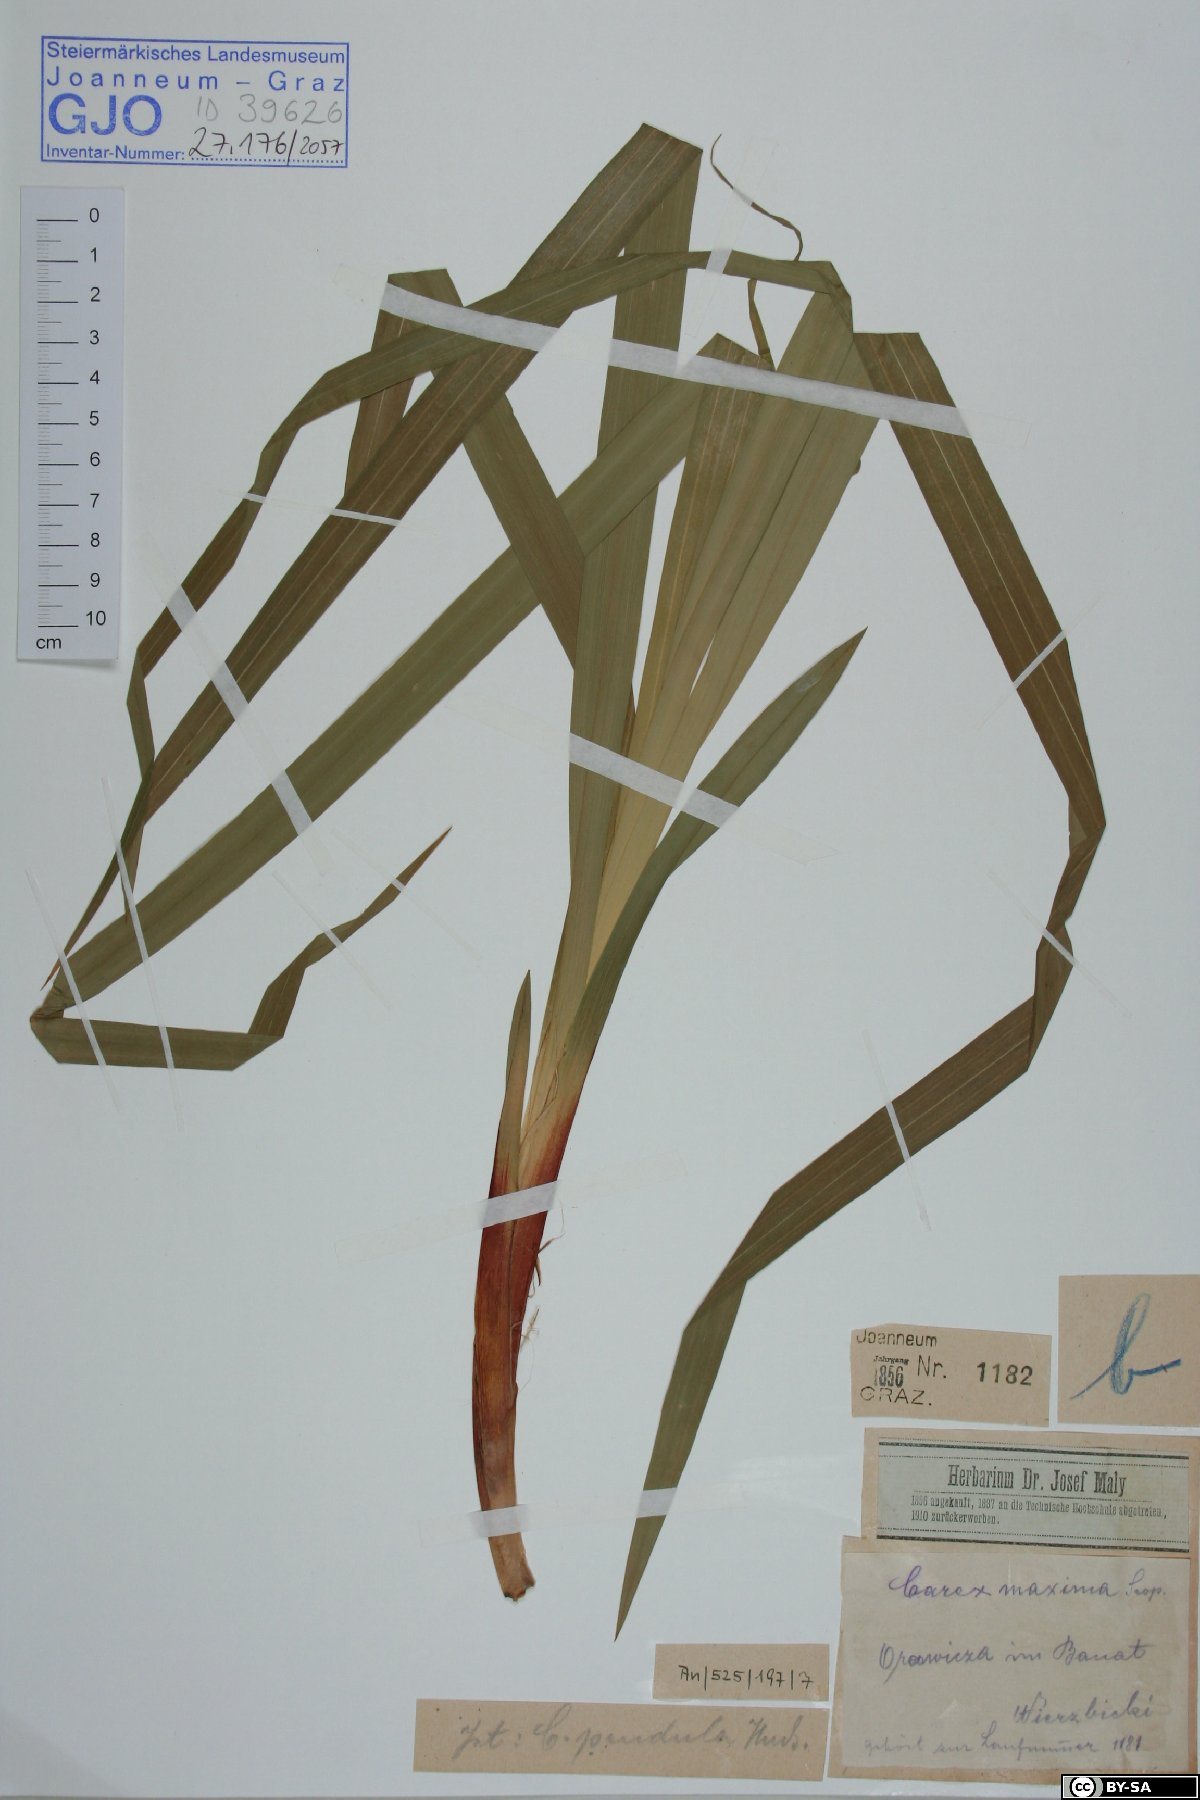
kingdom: Plantae
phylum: Tracheophyta
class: Liliopsida
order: Poales
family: Cyperaceae
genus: Carex
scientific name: Carex pendula
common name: Pendulous sedge
